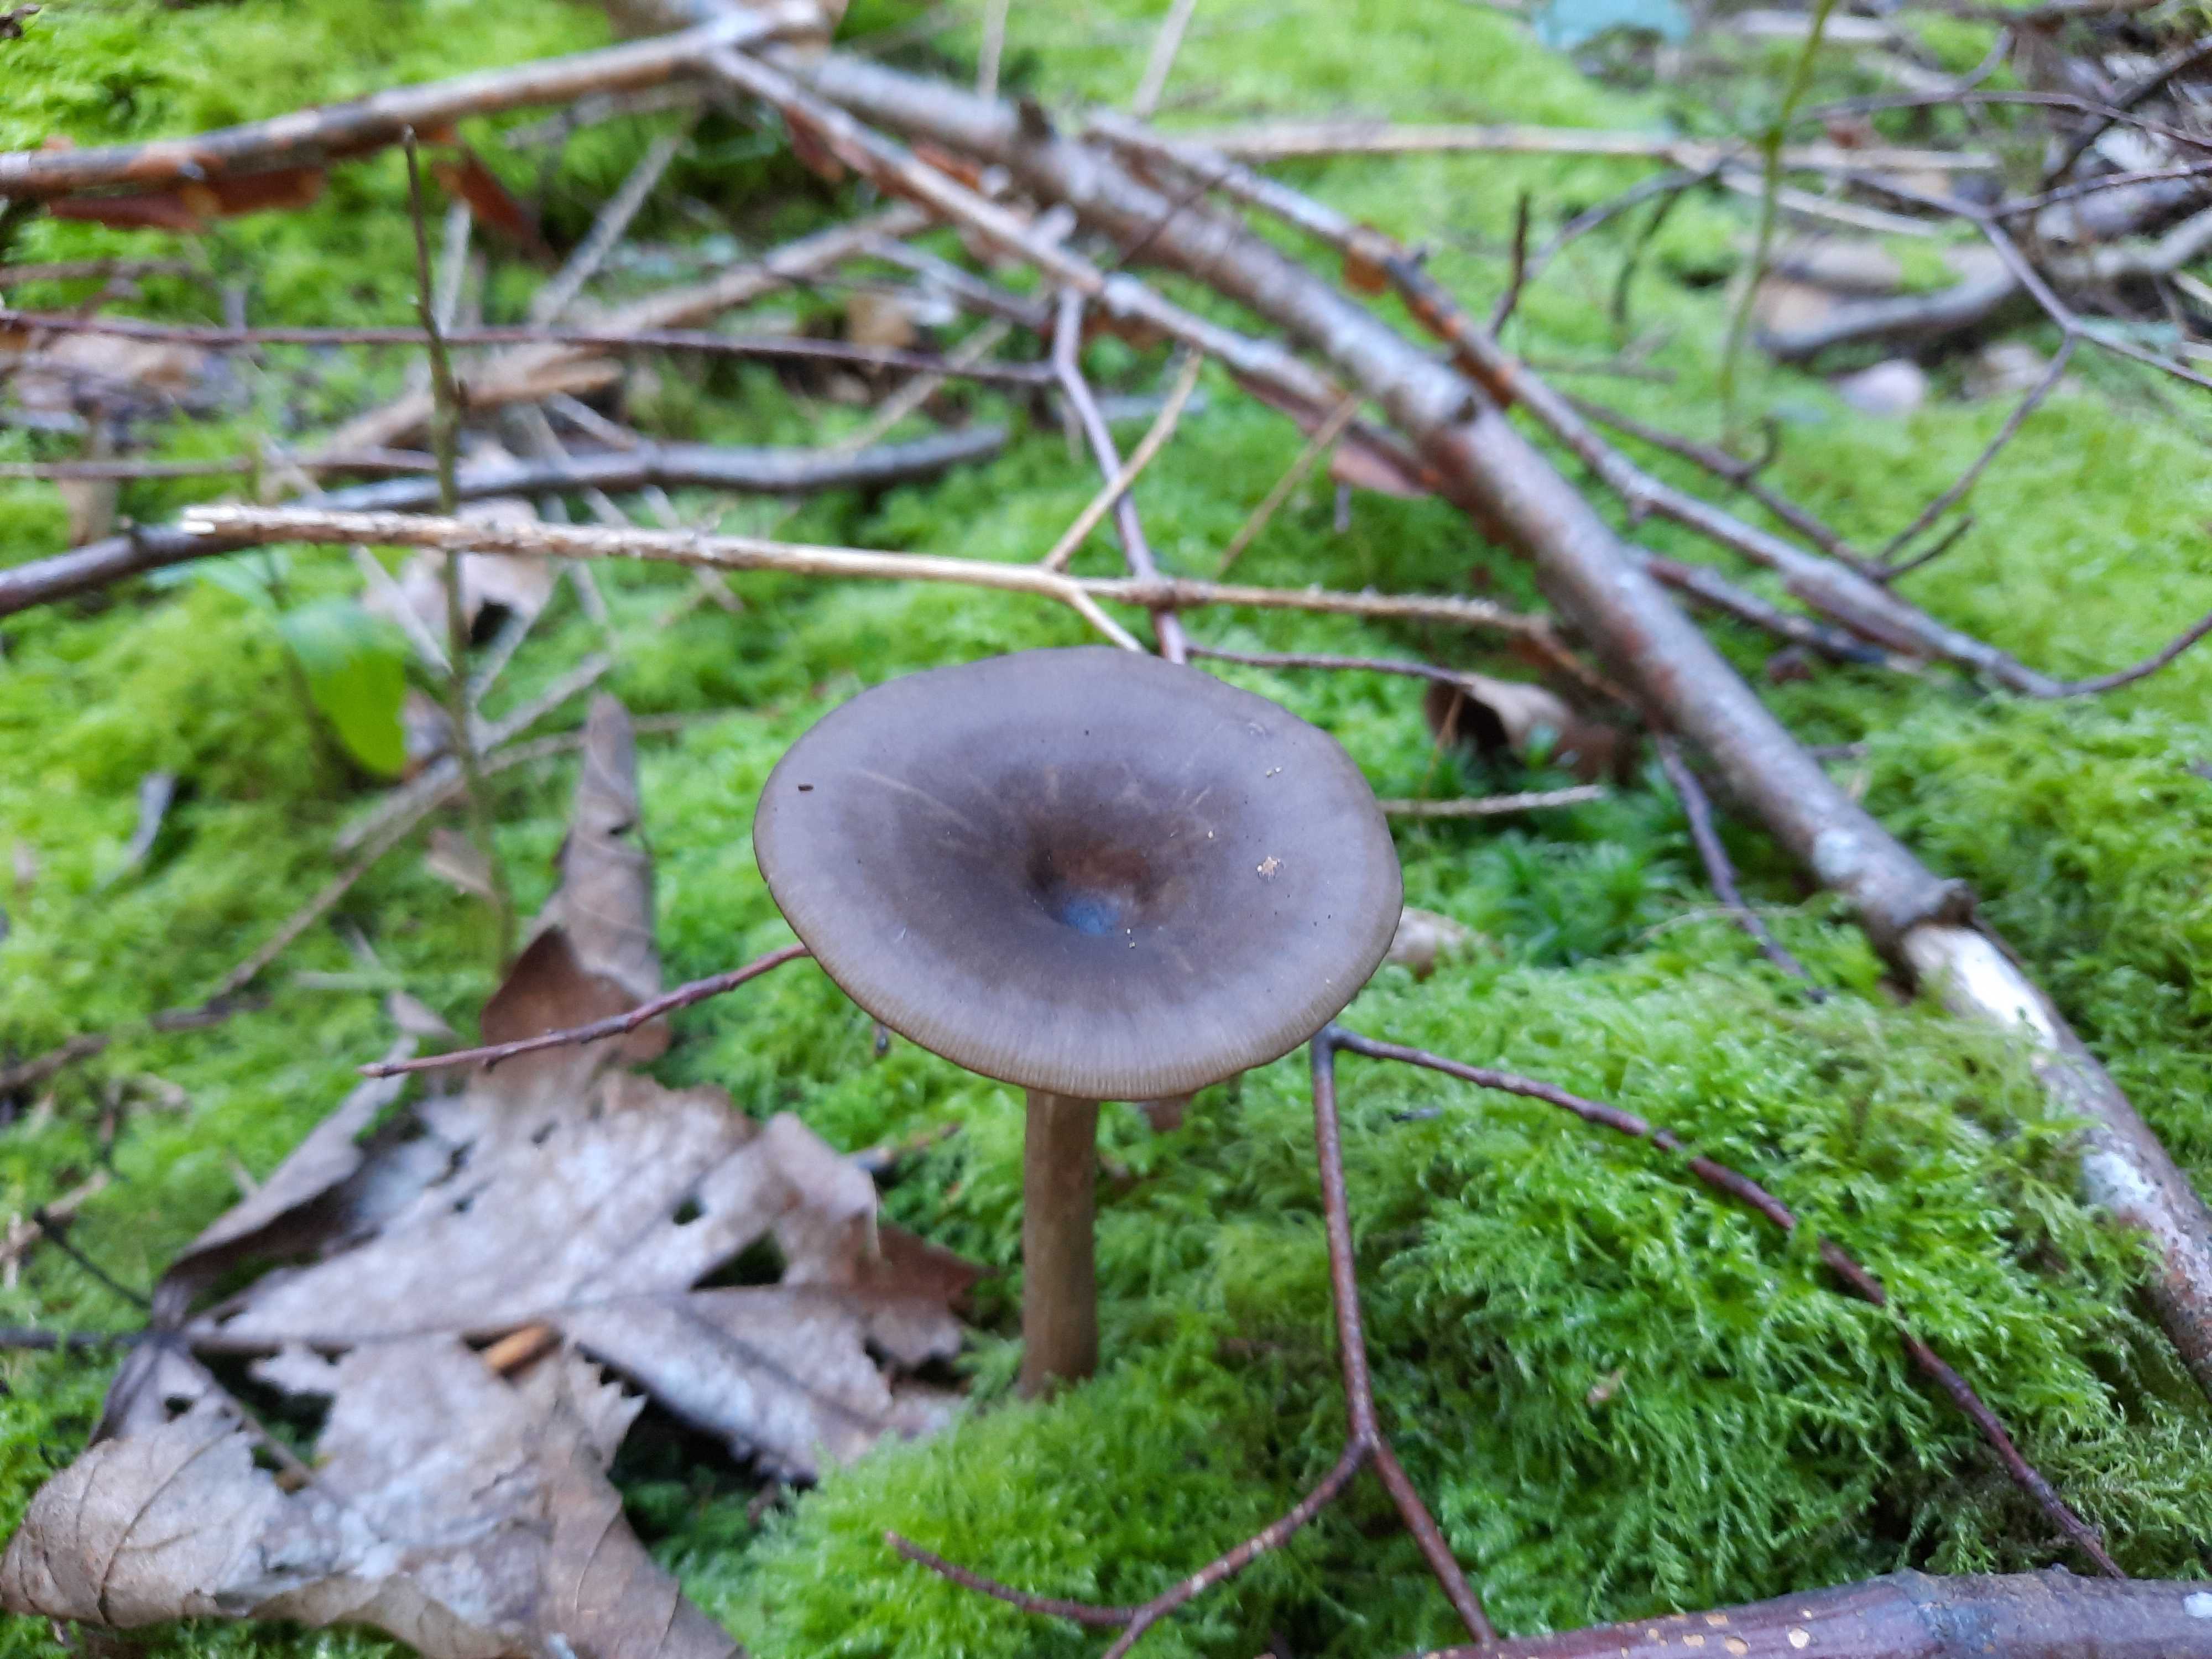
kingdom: Fungi
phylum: Basidiomycota
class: Agaricomycetes
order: Agaricales
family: Pseudoclitocybaceae
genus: Pseudoclitocybe
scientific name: Pseudoclitocybe cyathiformis
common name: almindelig bægertragthat
